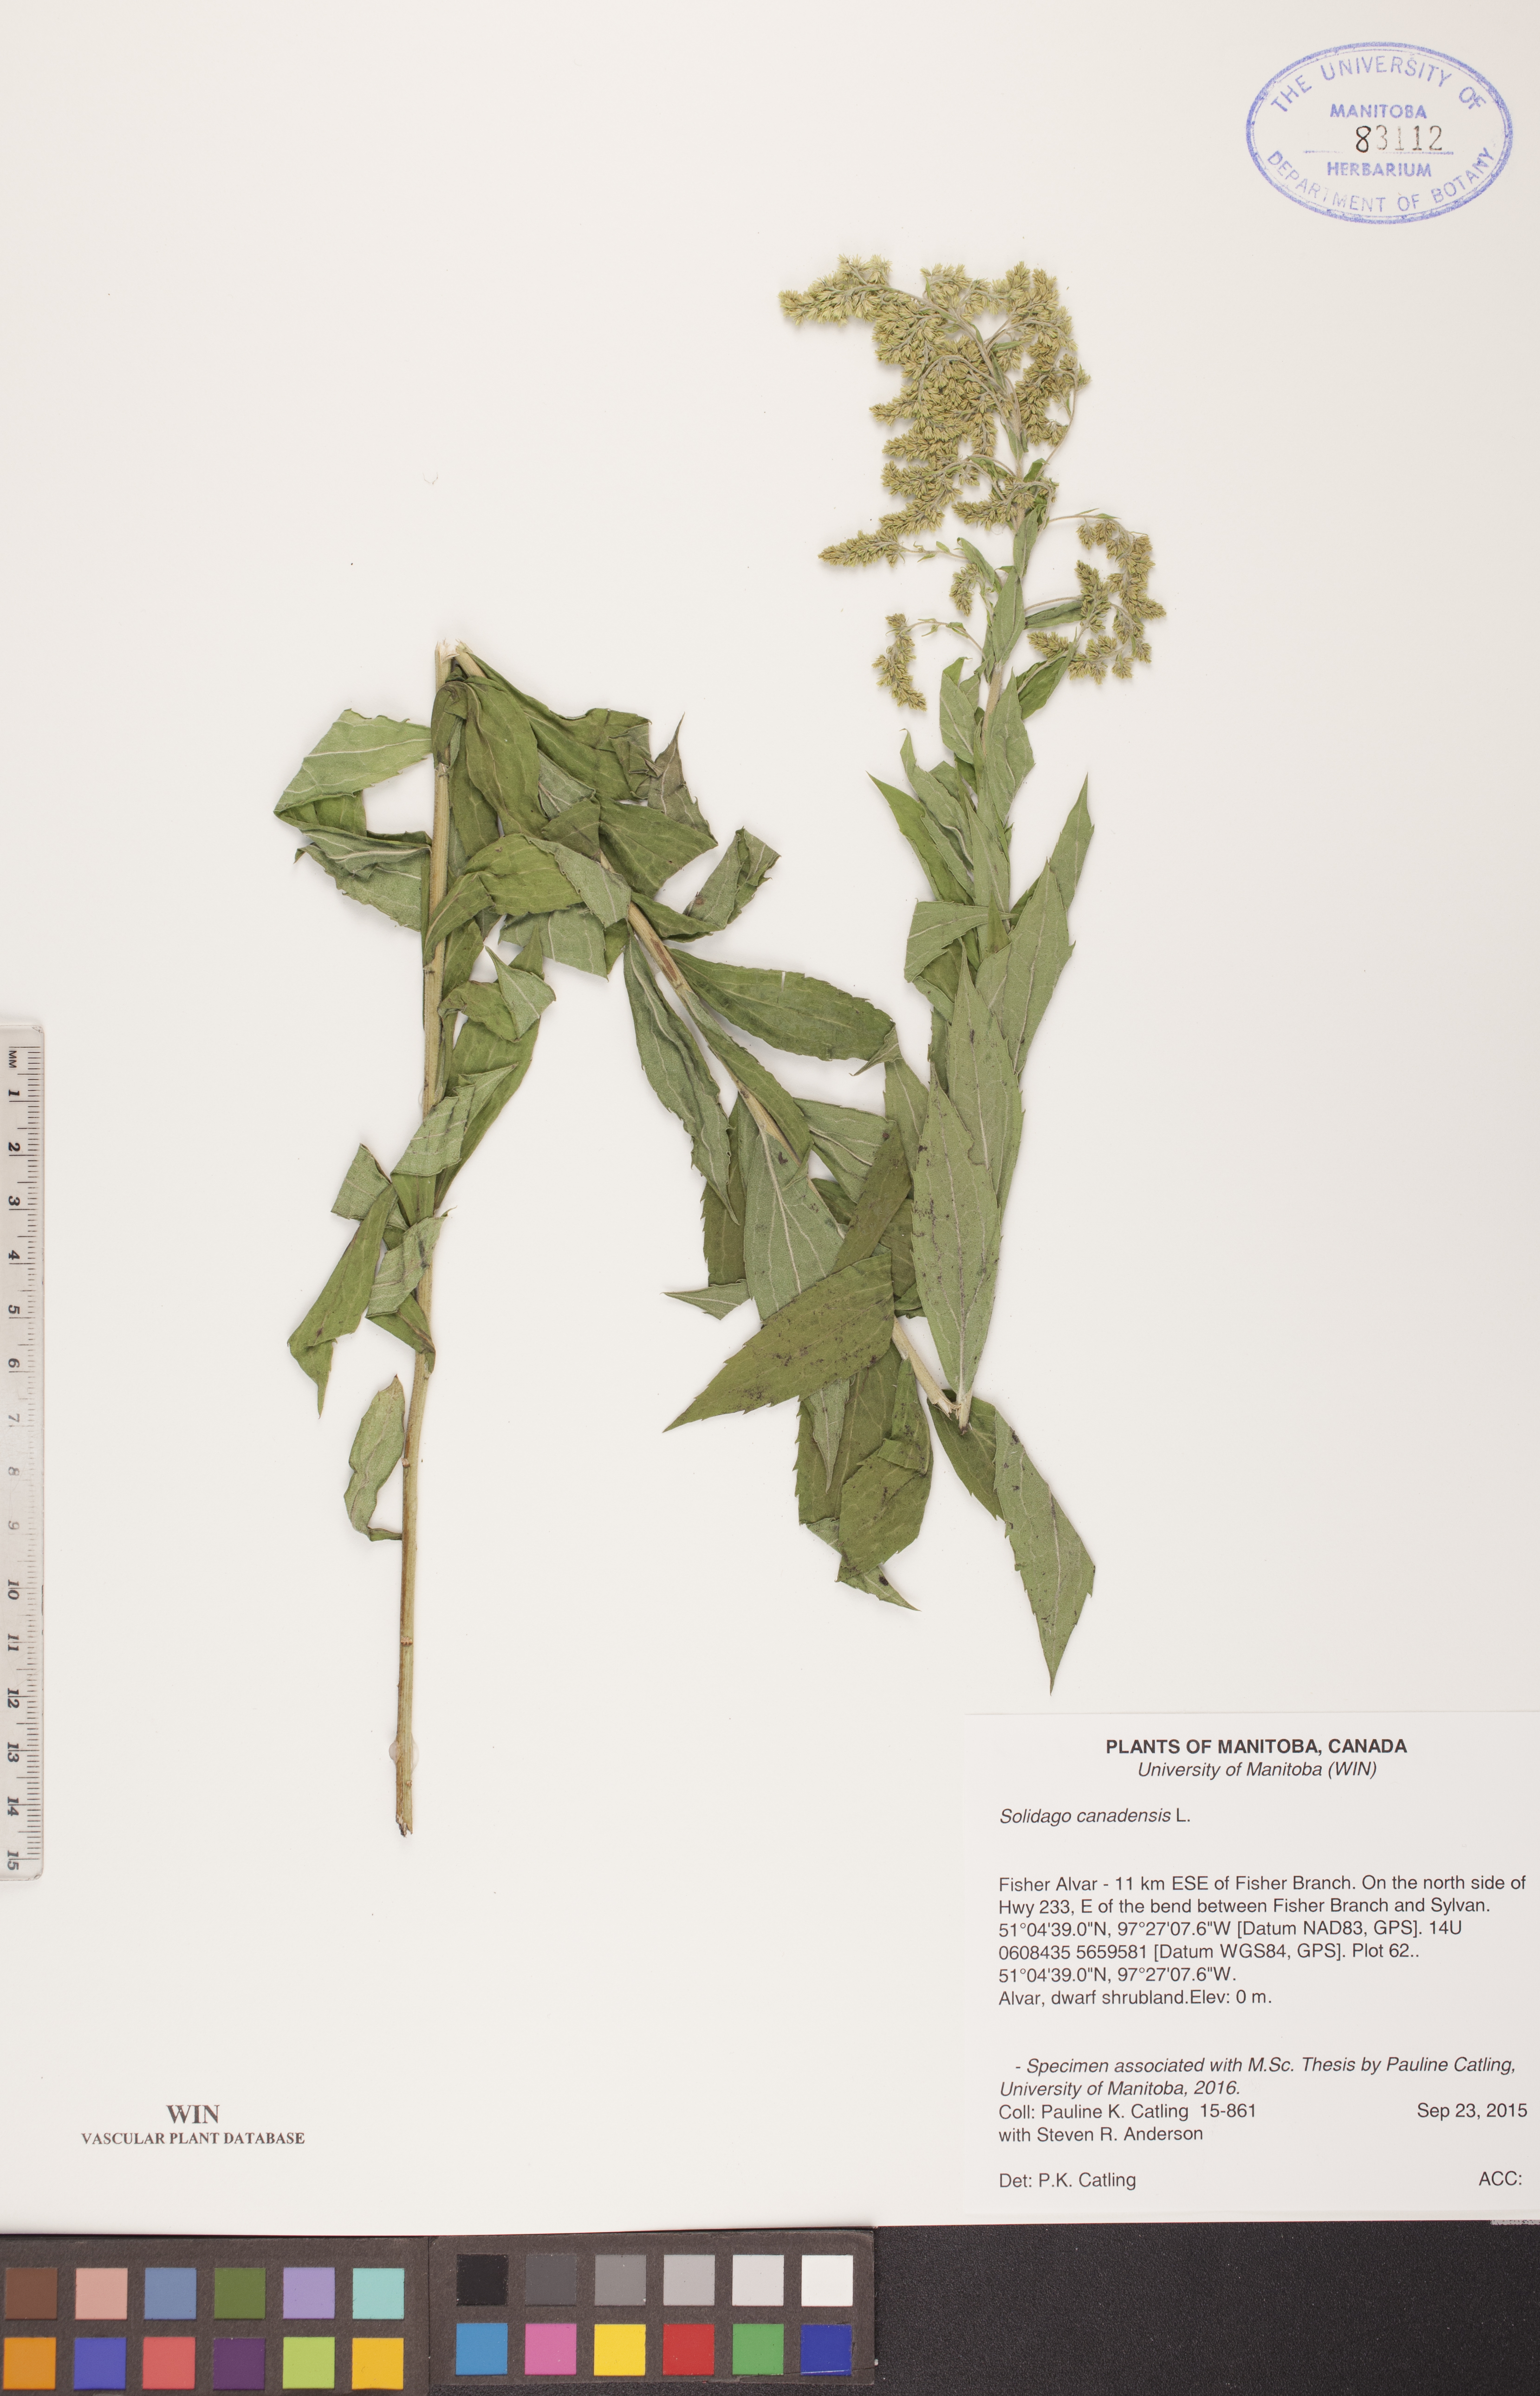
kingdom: Plantae
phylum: Tracheophyta
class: Magnoliopsida
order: Asterales
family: Asteraceae
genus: Solidago
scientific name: Solidago canadensis
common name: Canada goldenrod
